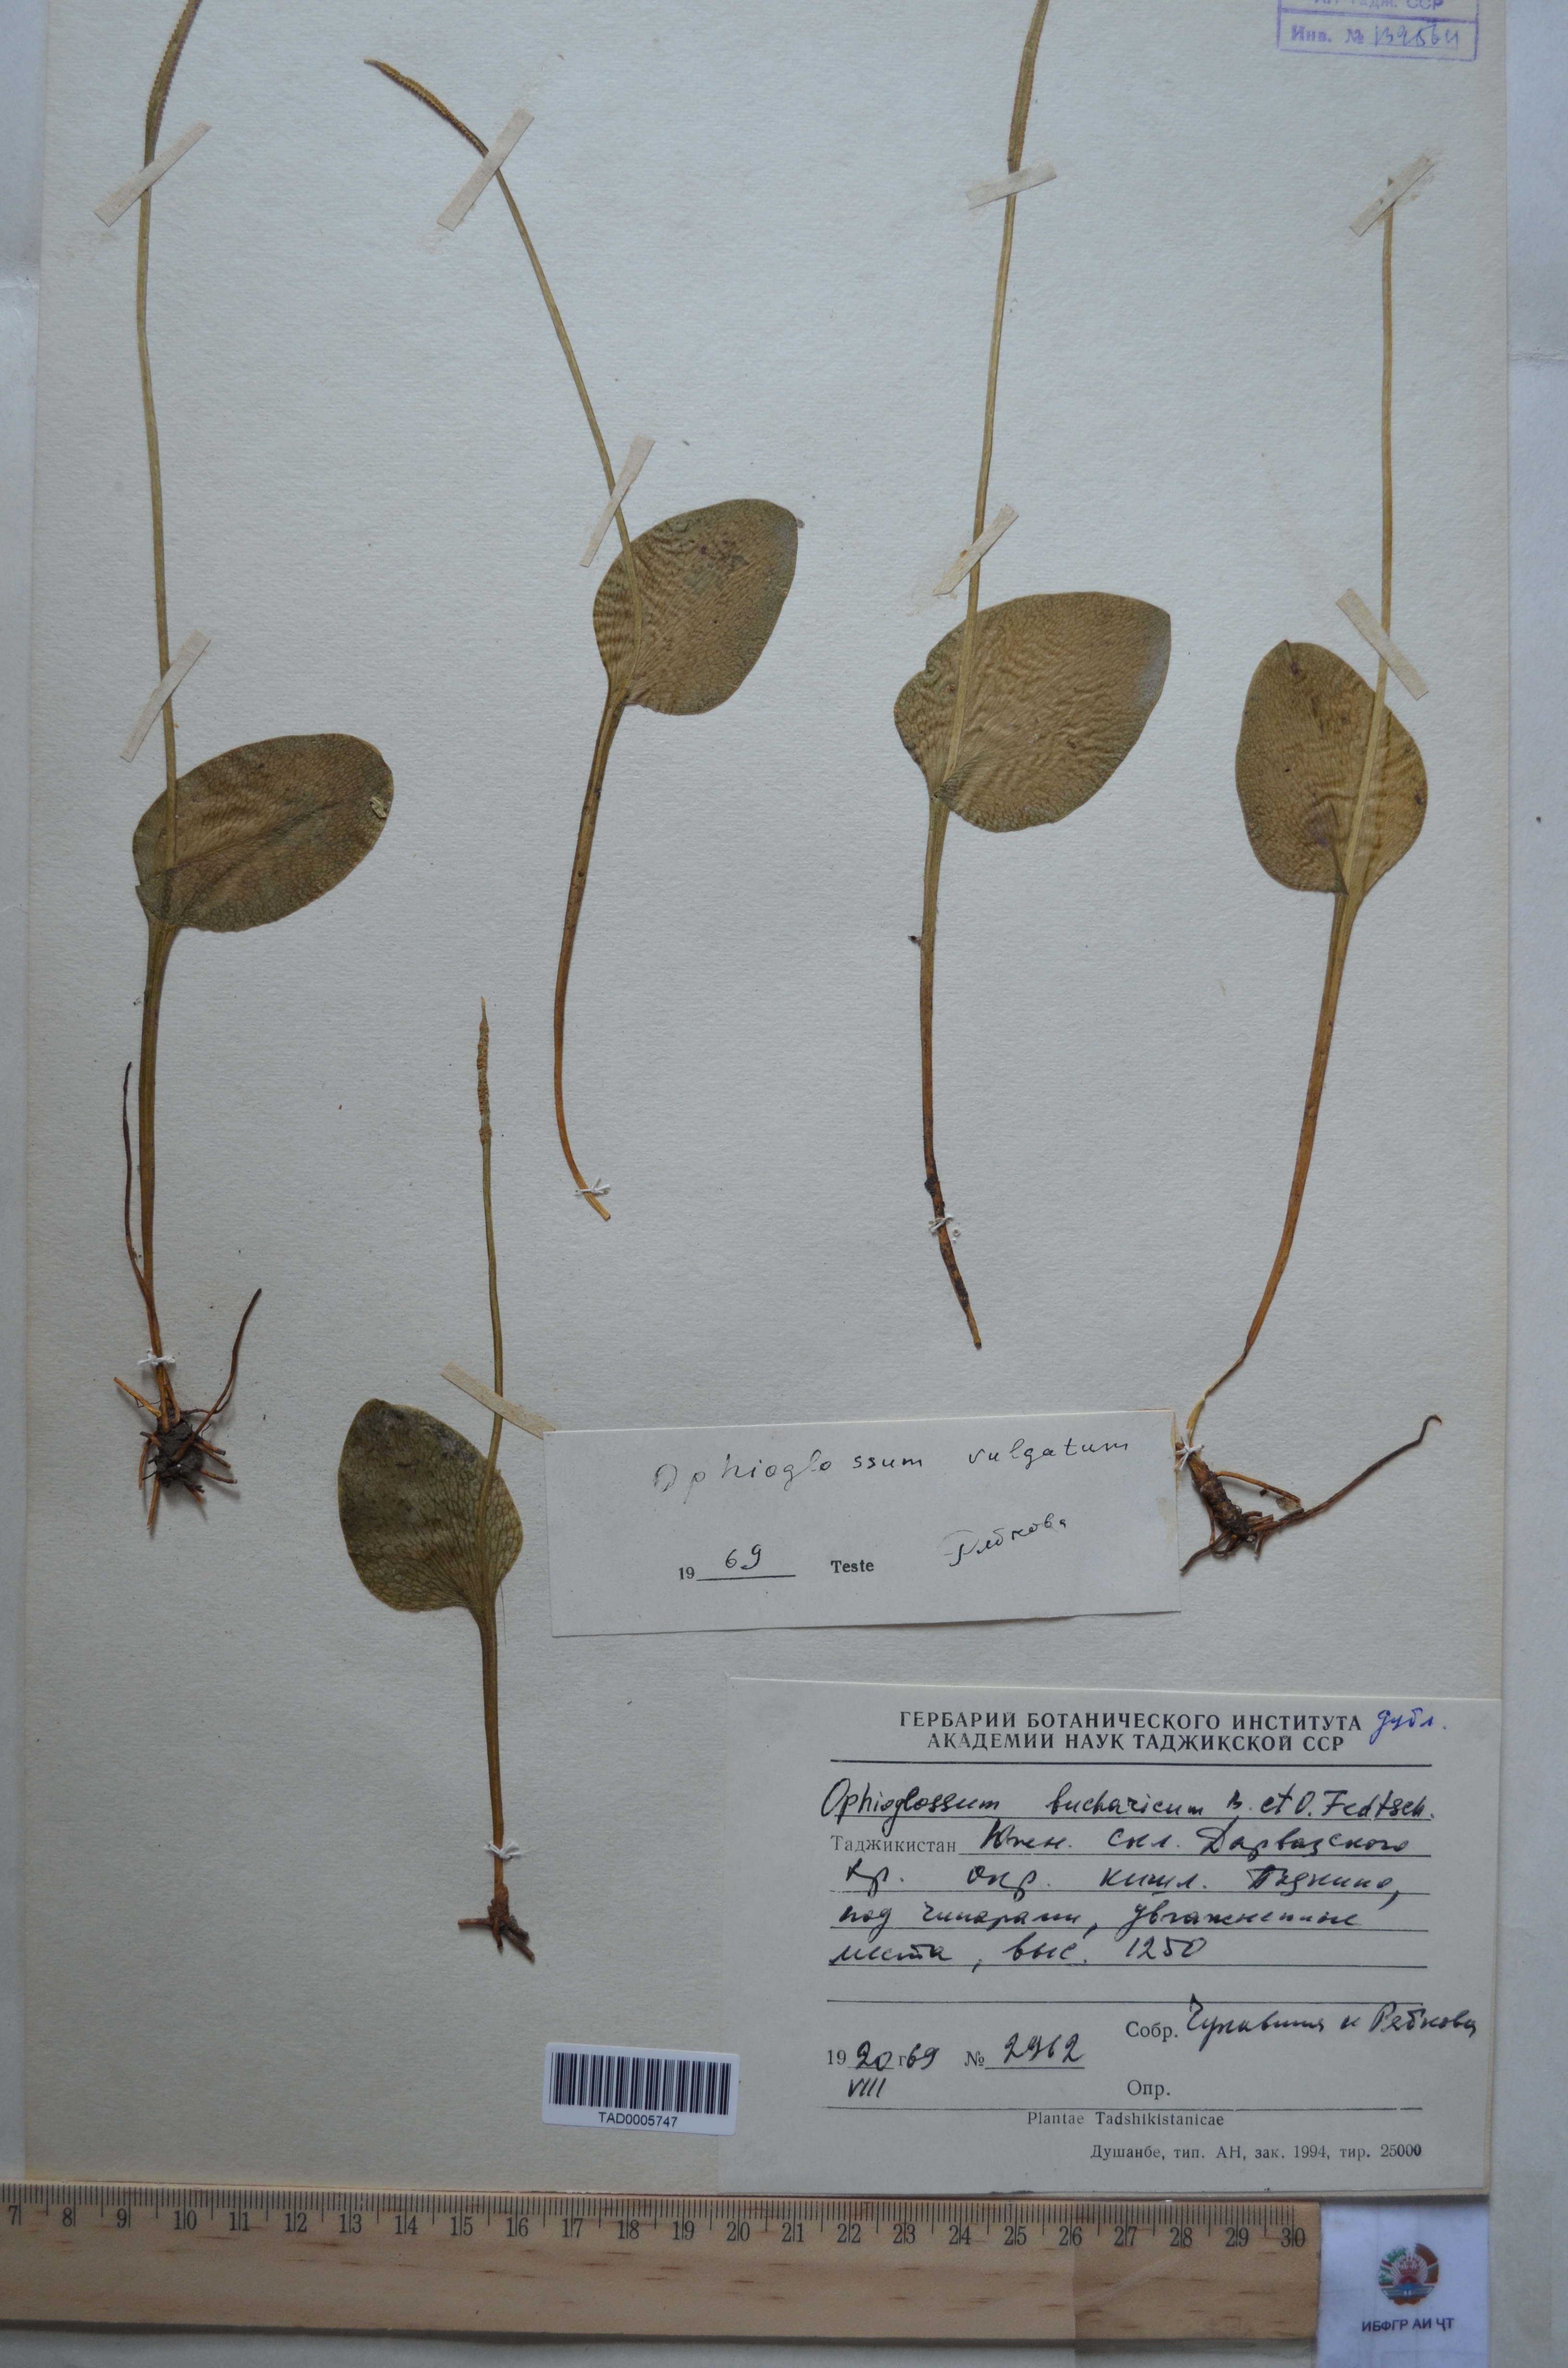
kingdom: Plantae
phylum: Tracheophyta
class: Polypodiopsida
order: Ophioglossales
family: Ophioglossaceae
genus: Ophioglossum
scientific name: Ophioglossum thermale
